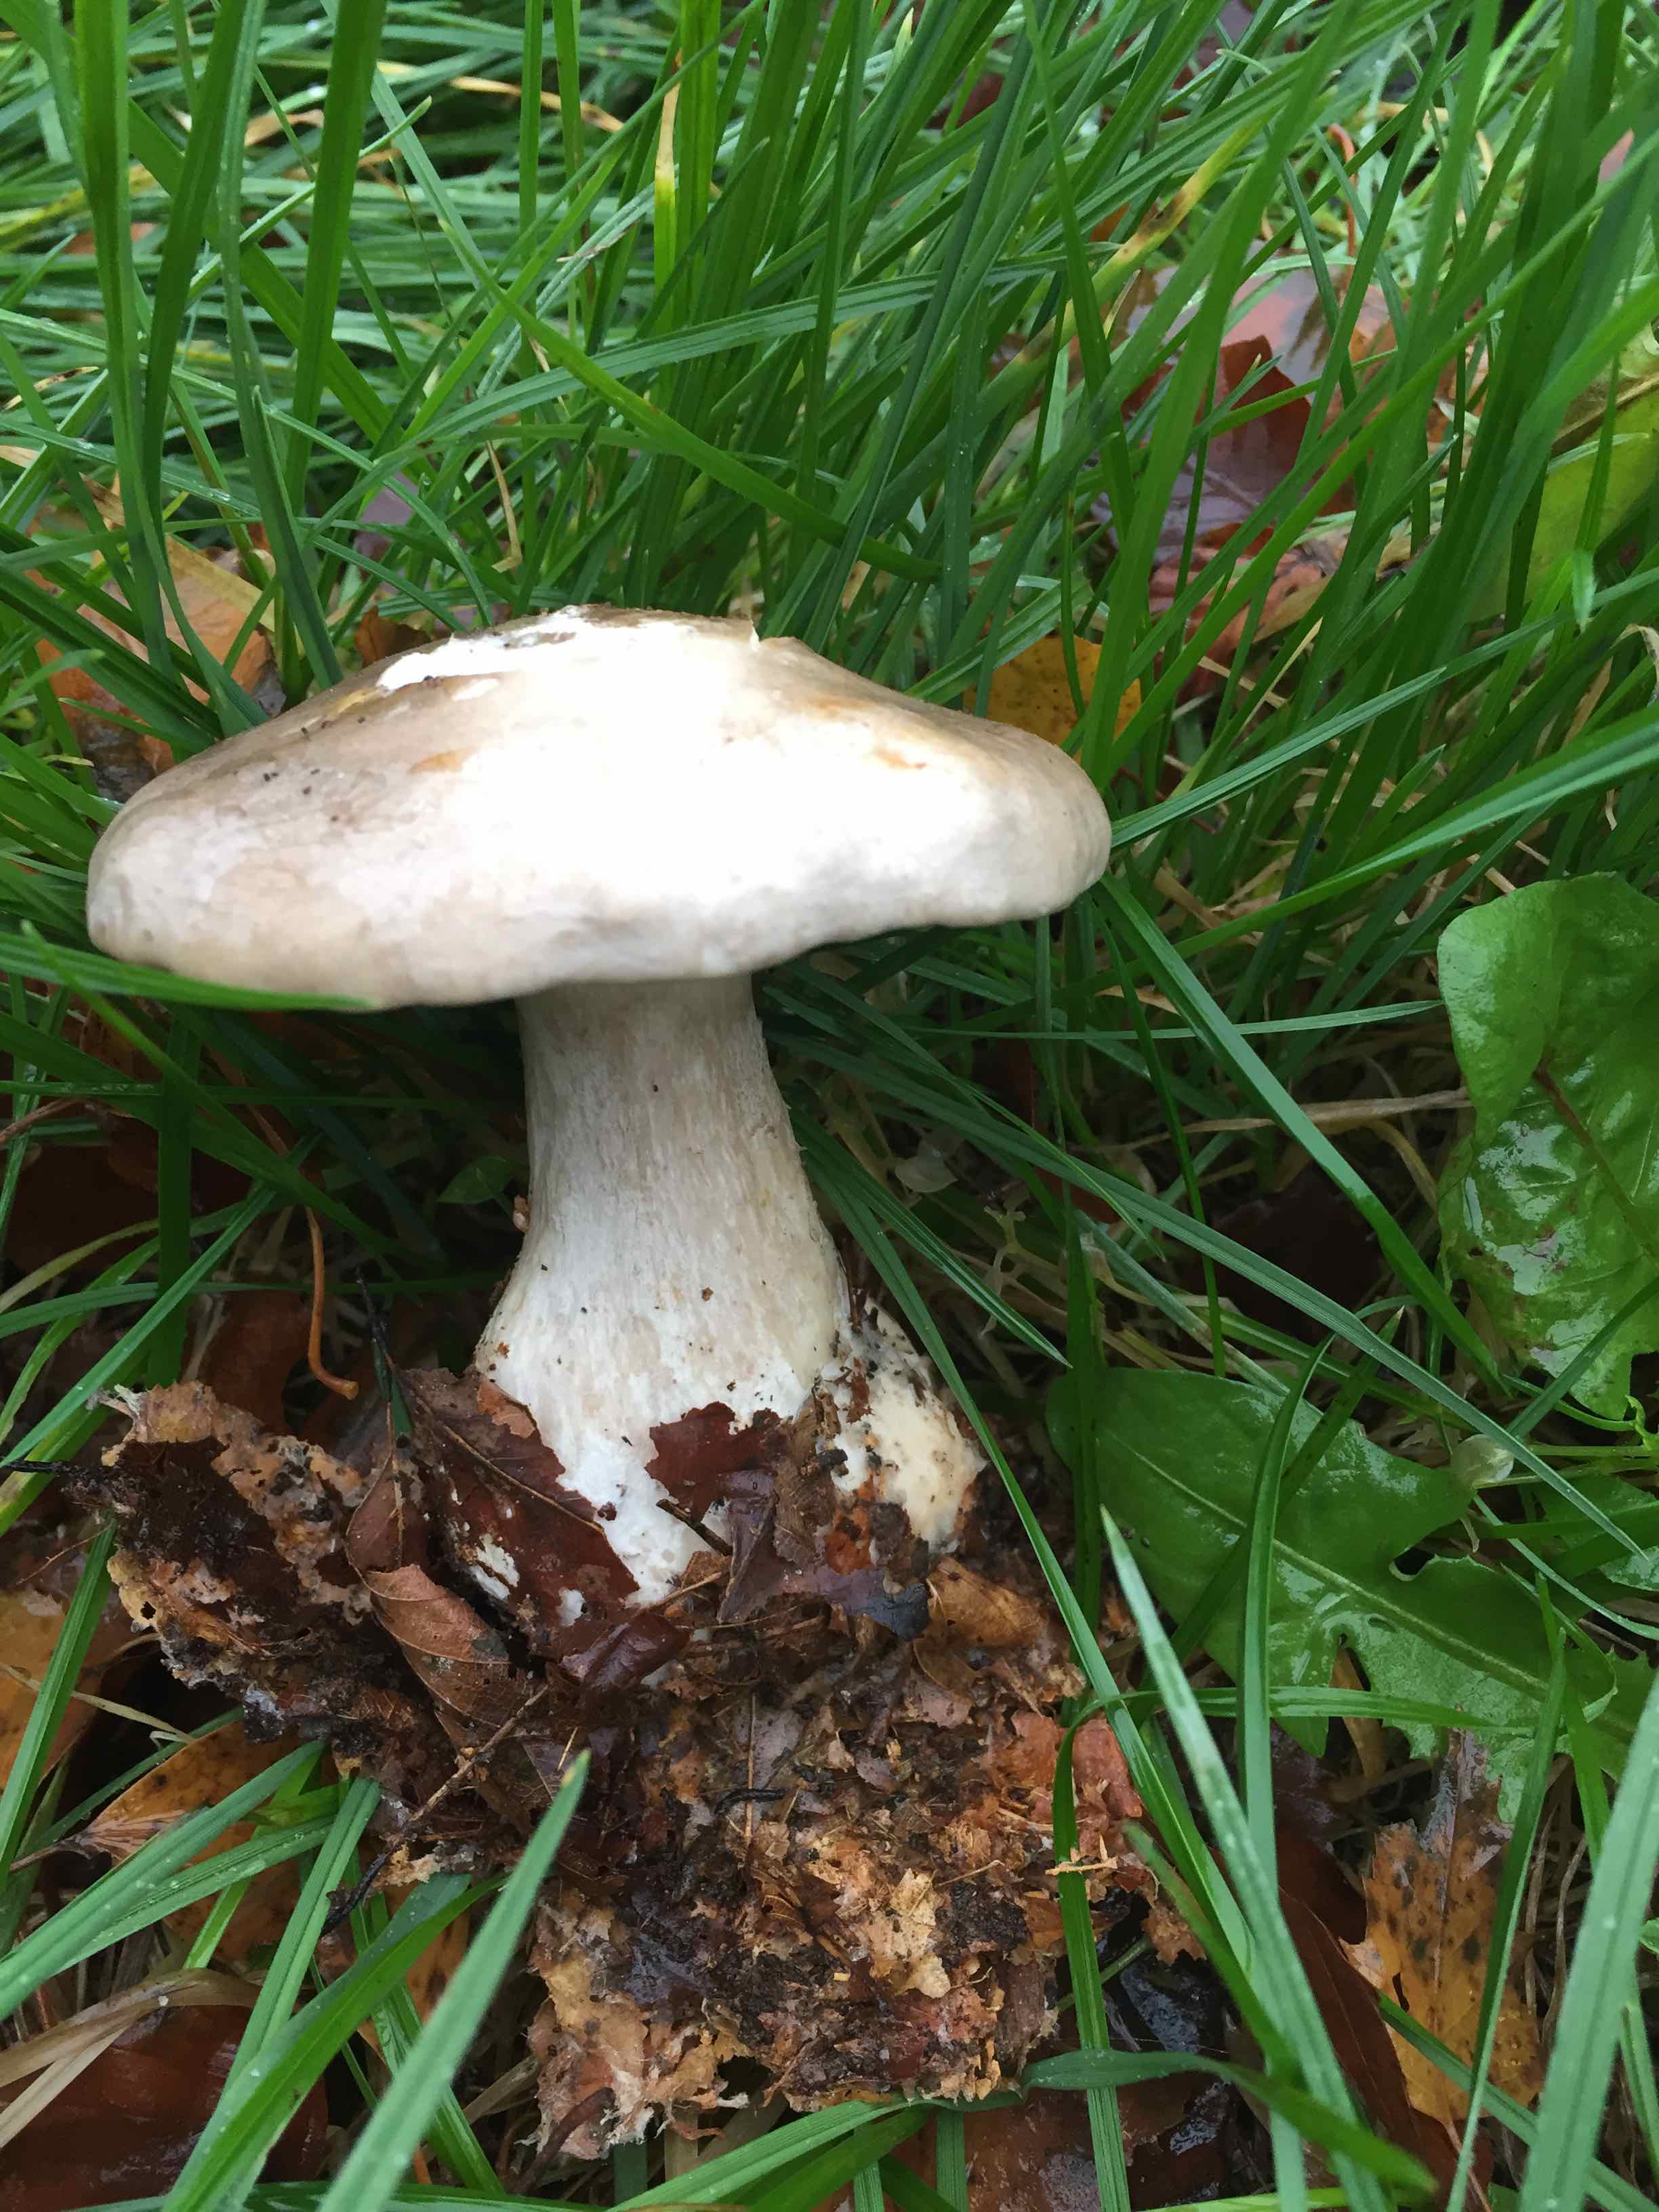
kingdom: Fungi
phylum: Basidiomycota
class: Agaricomycetes
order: Agaricales
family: Tricholomataceae
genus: Clitocybe
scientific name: Clitocybe nebularis
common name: tåge-tragthat
